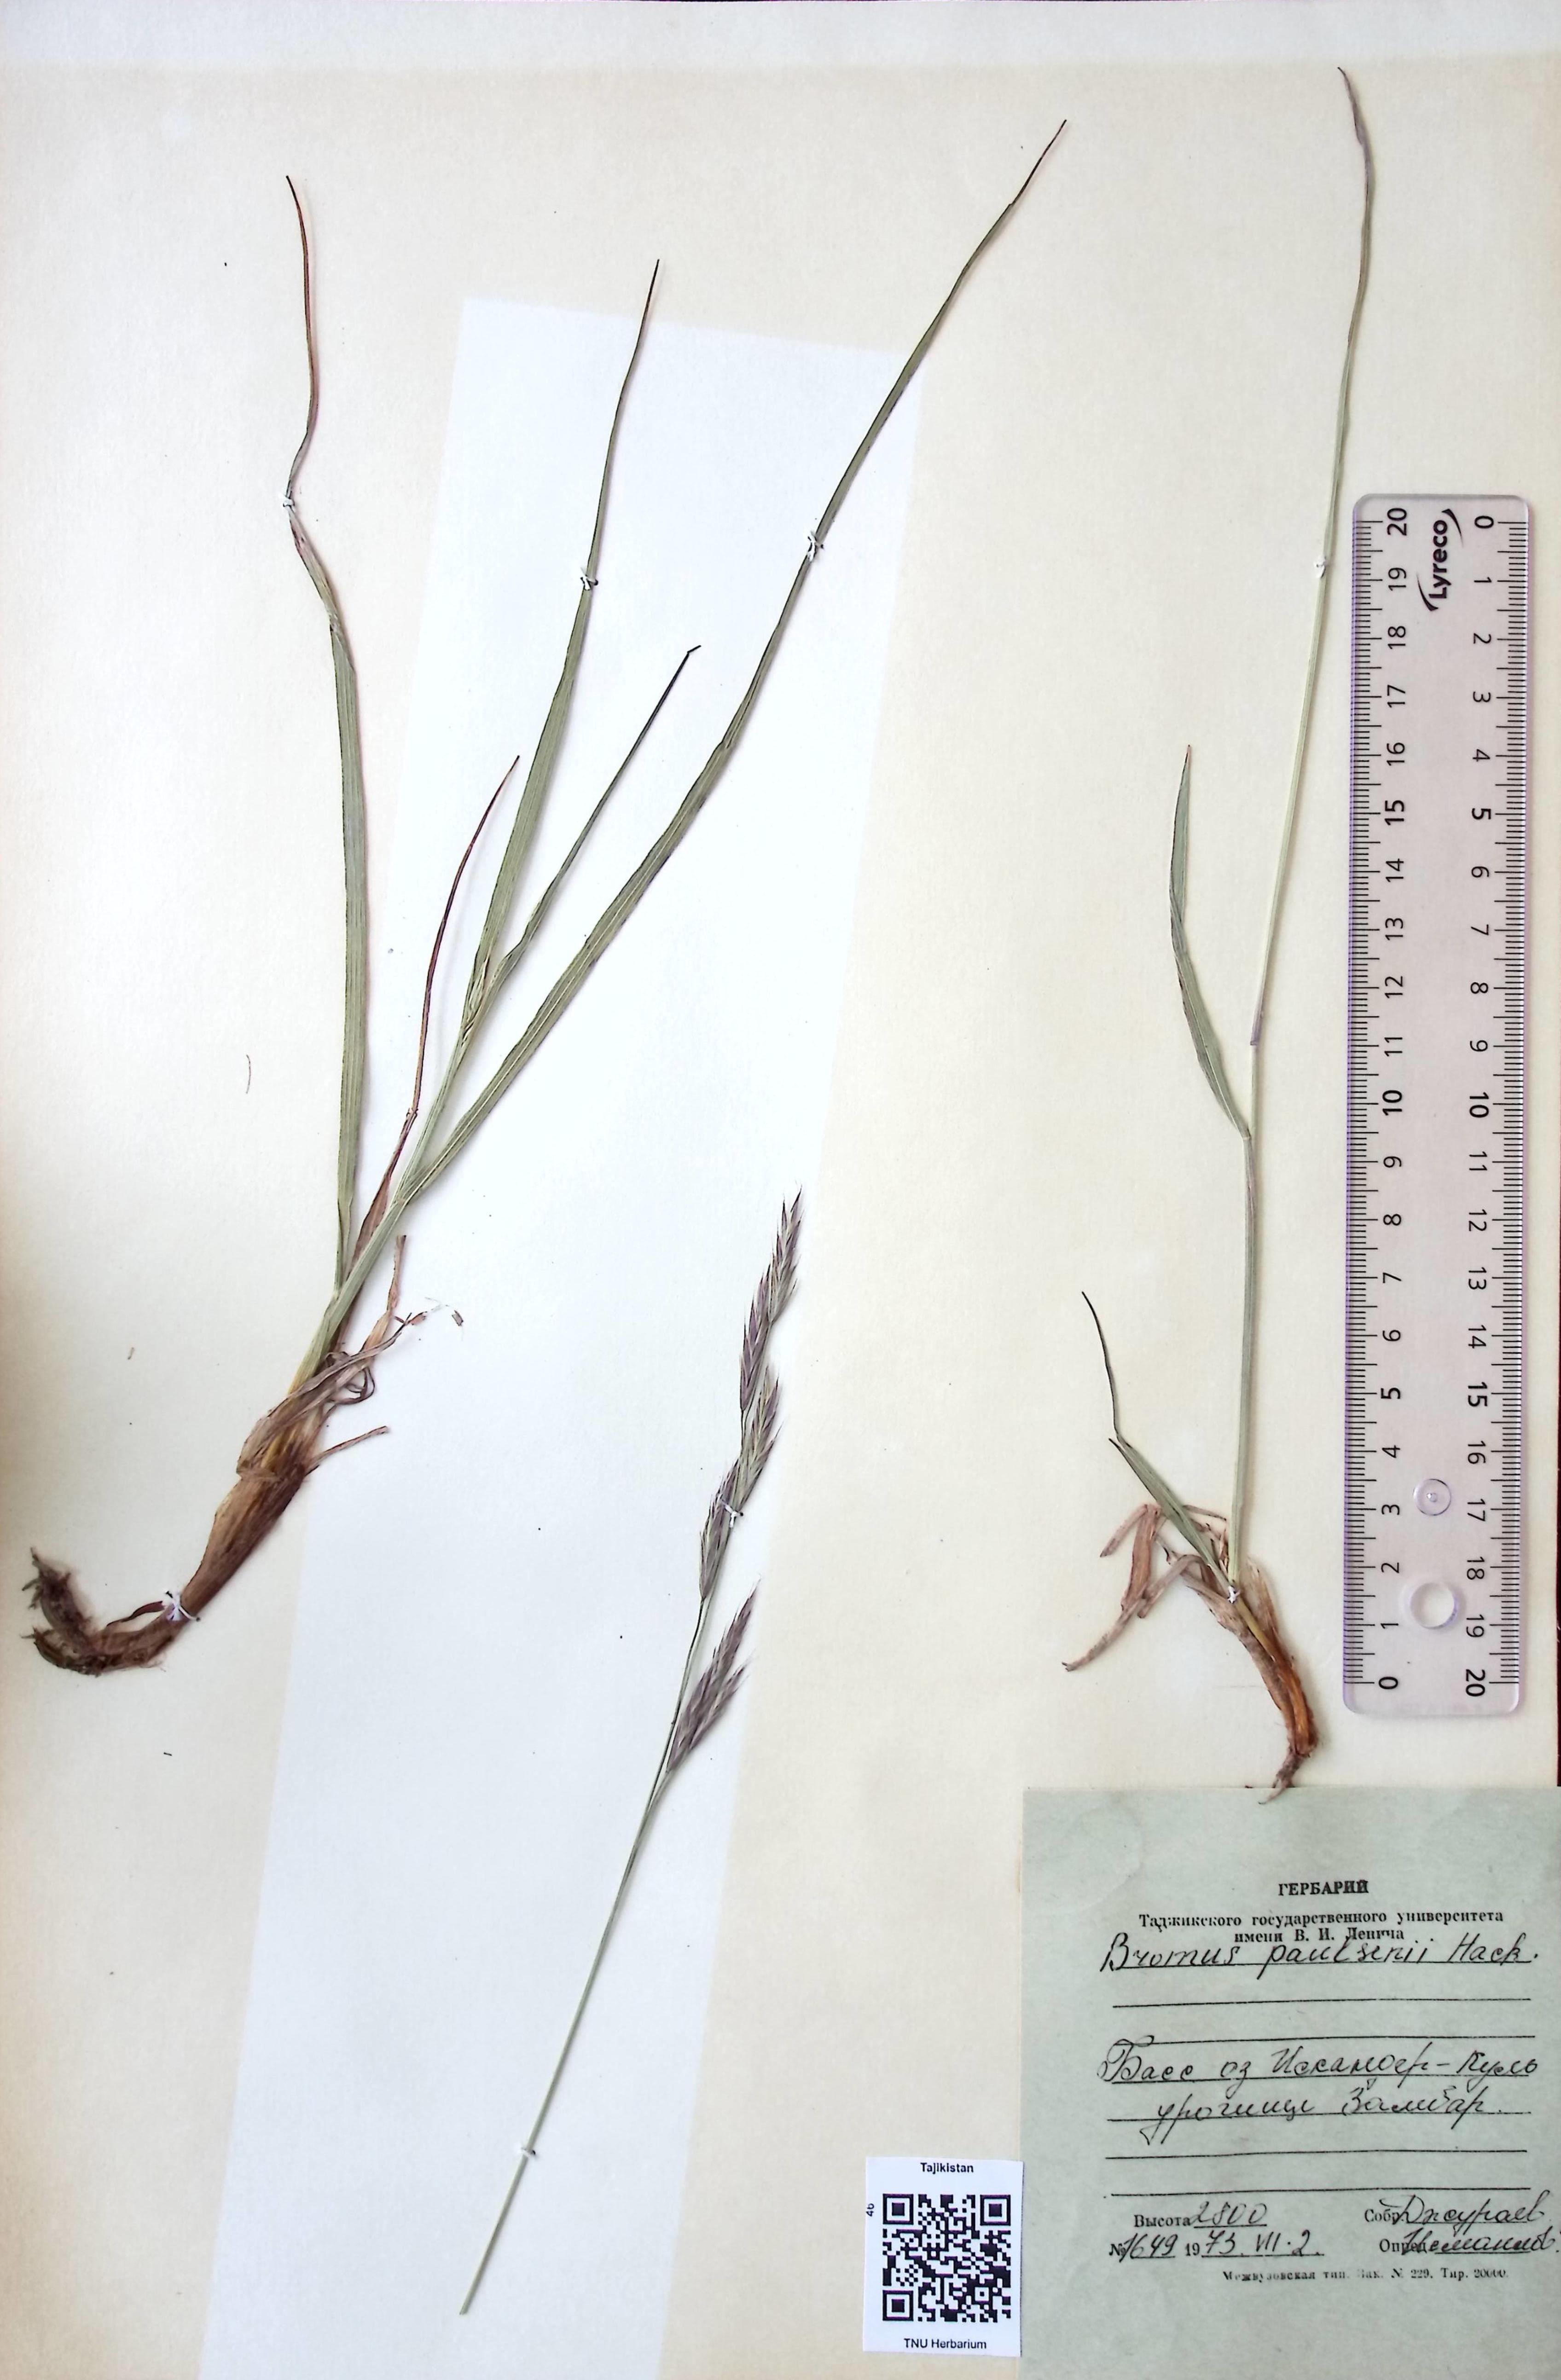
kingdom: Plantae
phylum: Tracheophyta
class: Liliopsida
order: Poales
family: Poaceae
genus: Bromus
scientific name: Bromus paulsenii
